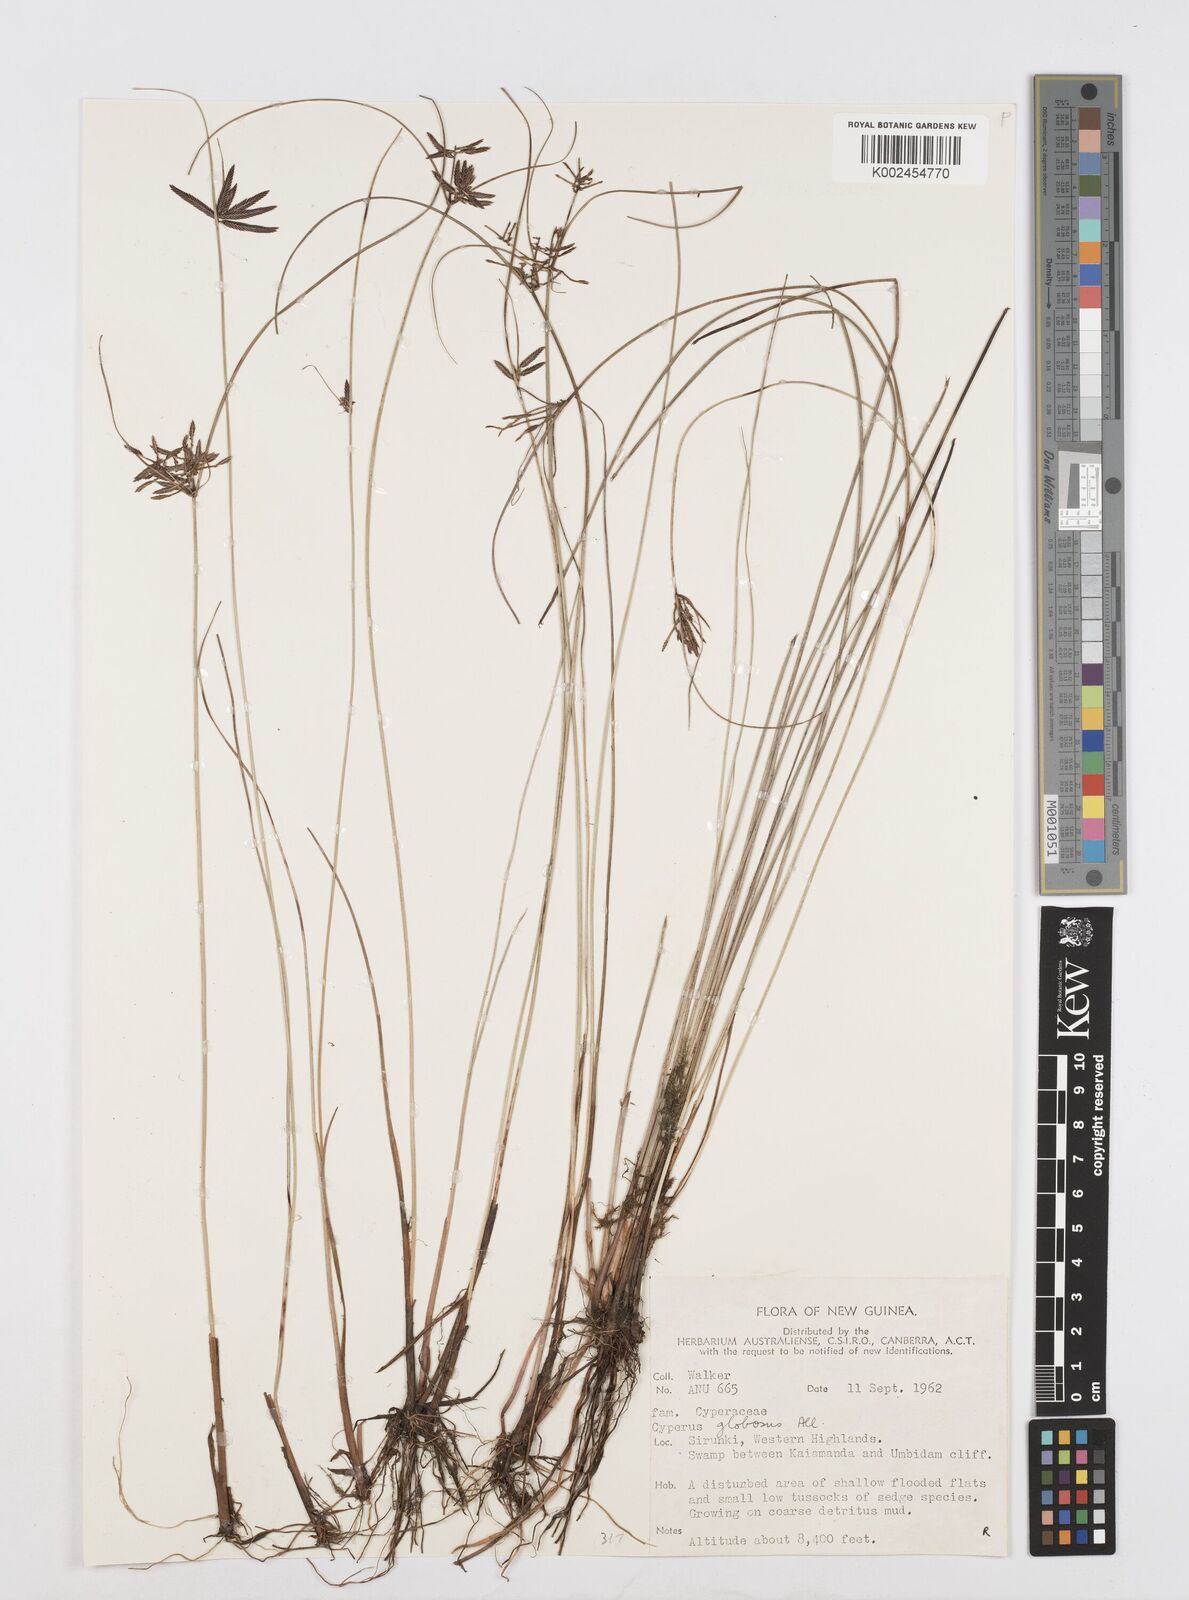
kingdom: Plantae
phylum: Tracheophyta
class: Liliopsida
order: Poales
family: Cyperaceae
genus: Cyperus
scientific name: Cyperus flavidus
